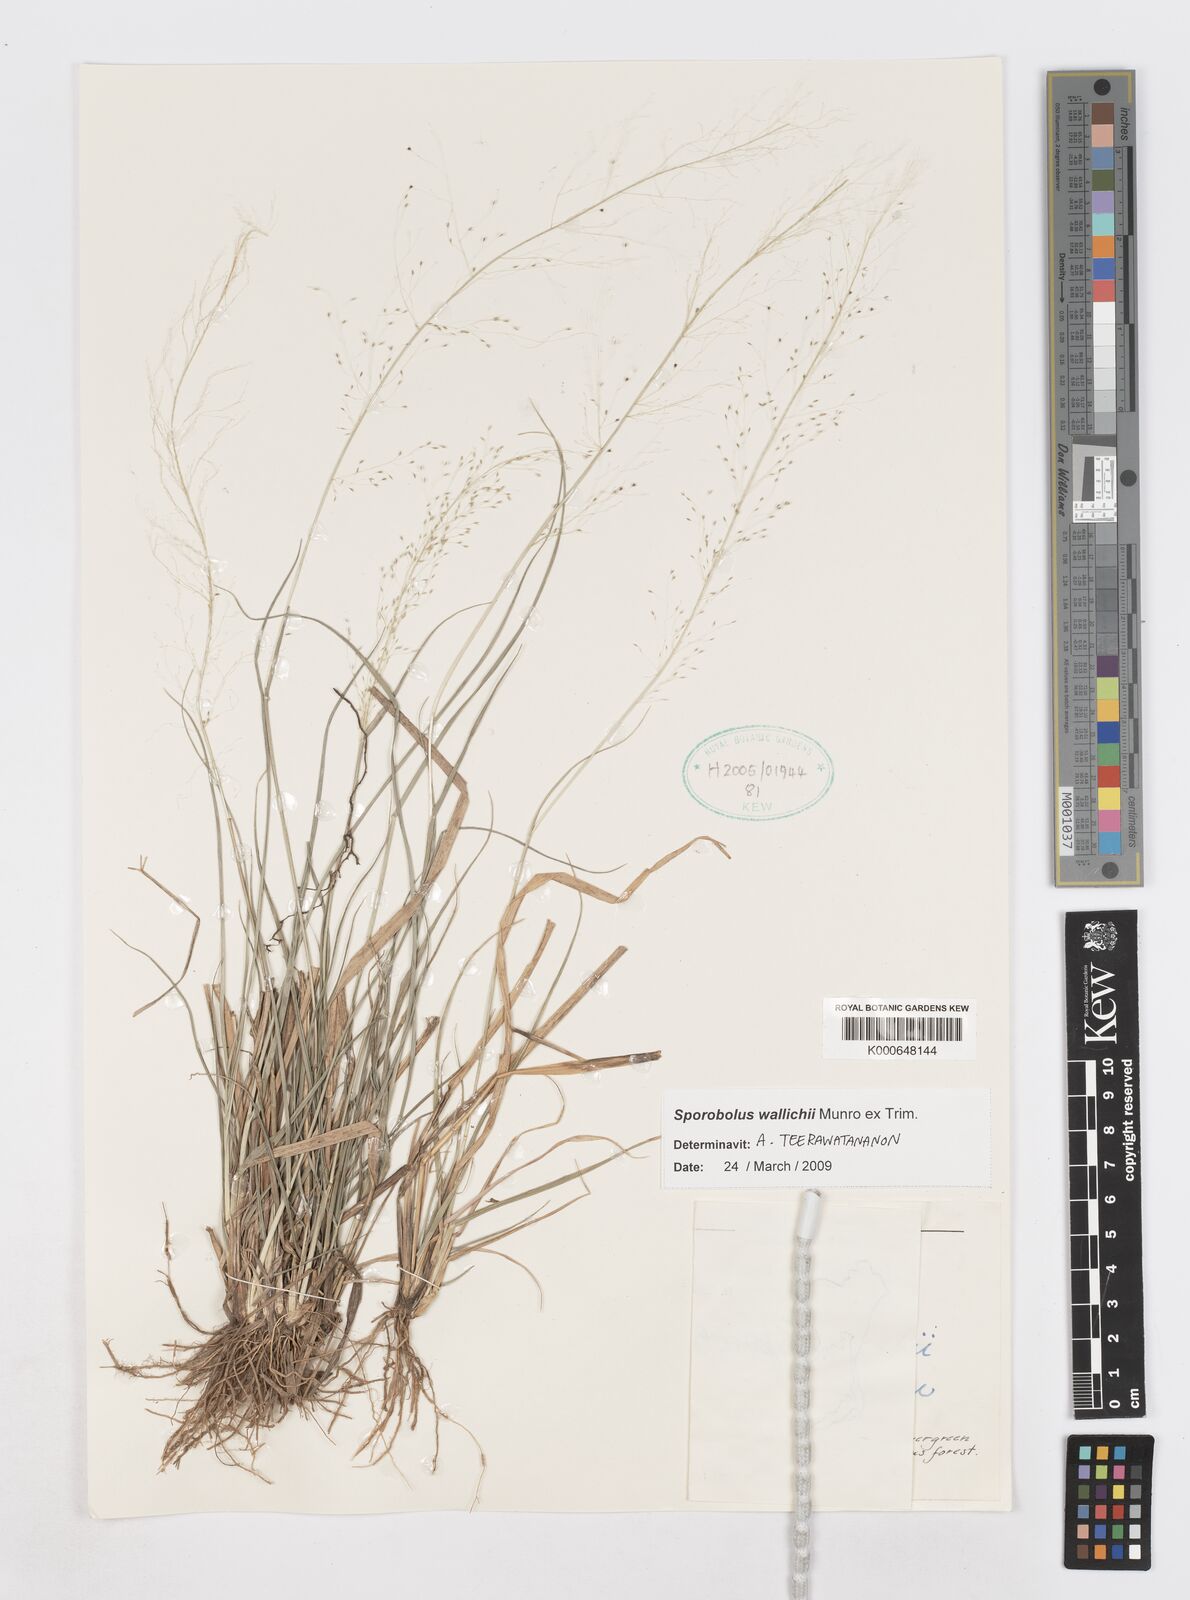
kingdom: Plantae
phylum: Tracheophyta
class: Liliopsida
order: Poales
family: Poaceae
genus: Sporobolus
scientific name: Sporobolus
